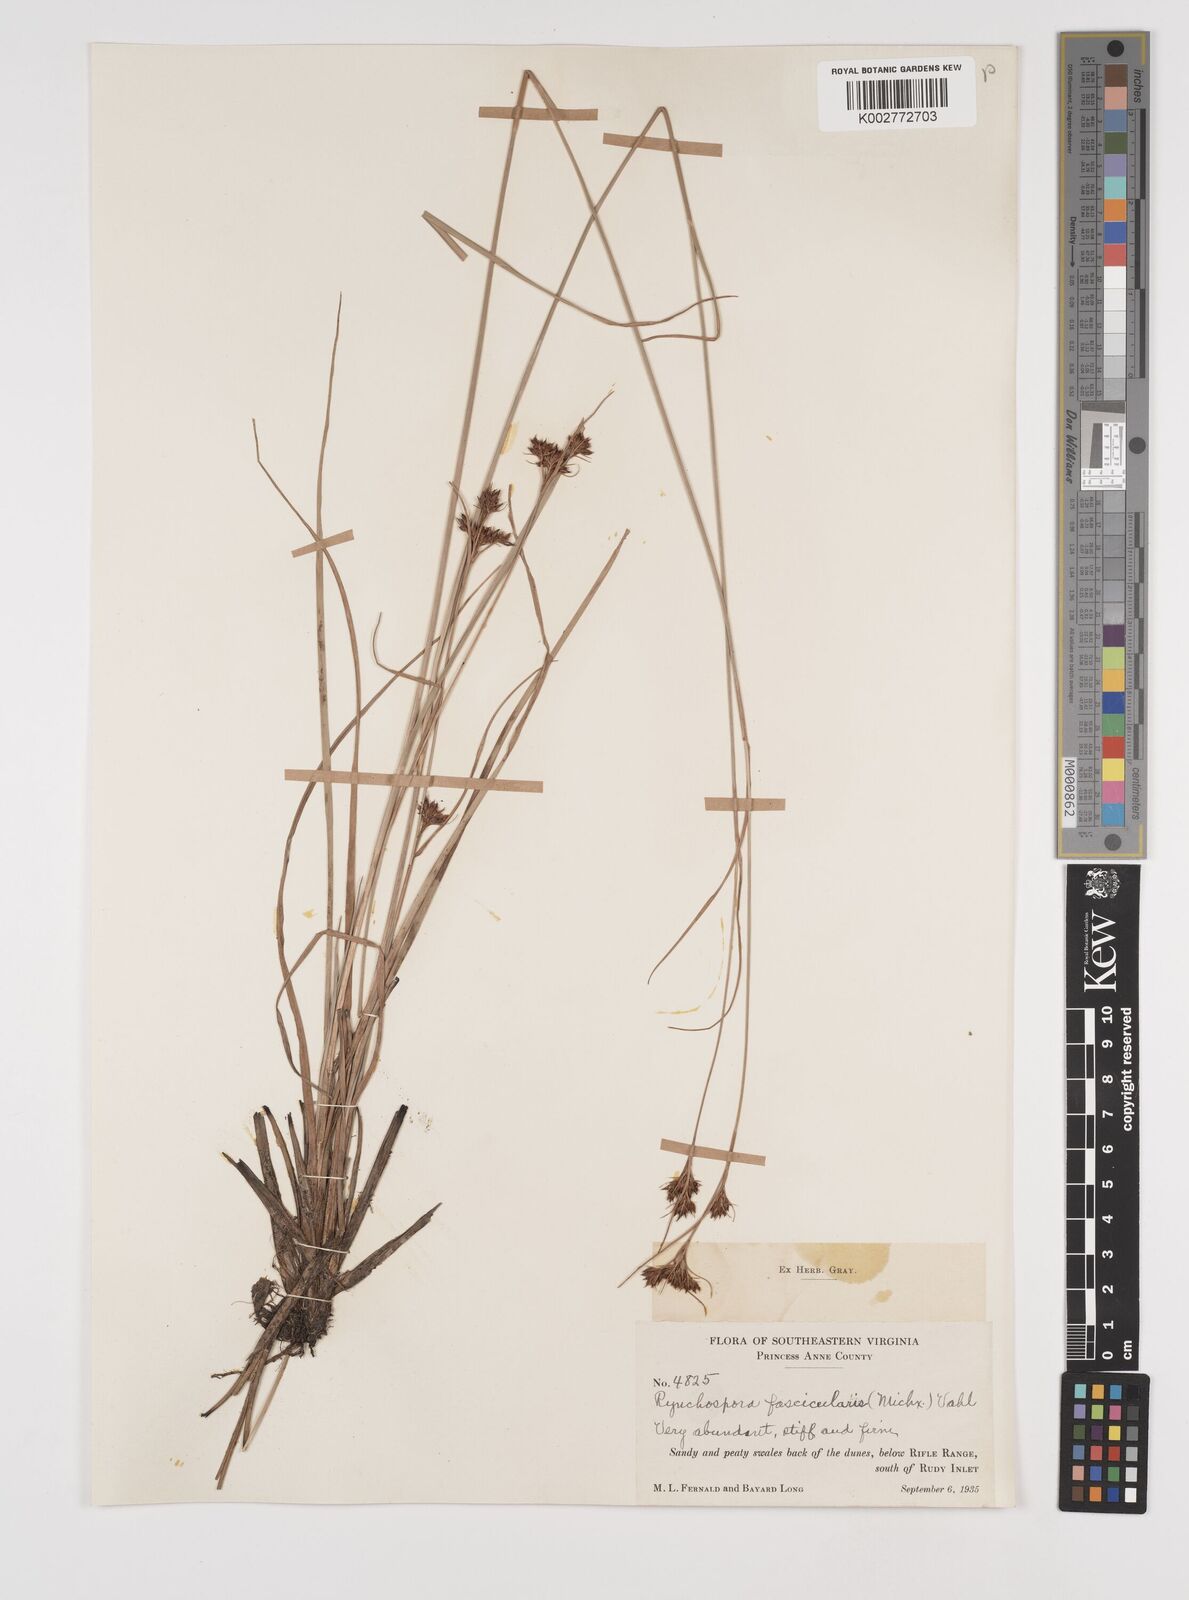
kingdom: Plantae
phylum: Tracheophyta
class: Liliopsida
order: Poales
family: Cyperaceae
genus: Rhynchospora
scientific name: Rhynchospora fascicularis
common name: Fascicled beak sedge
